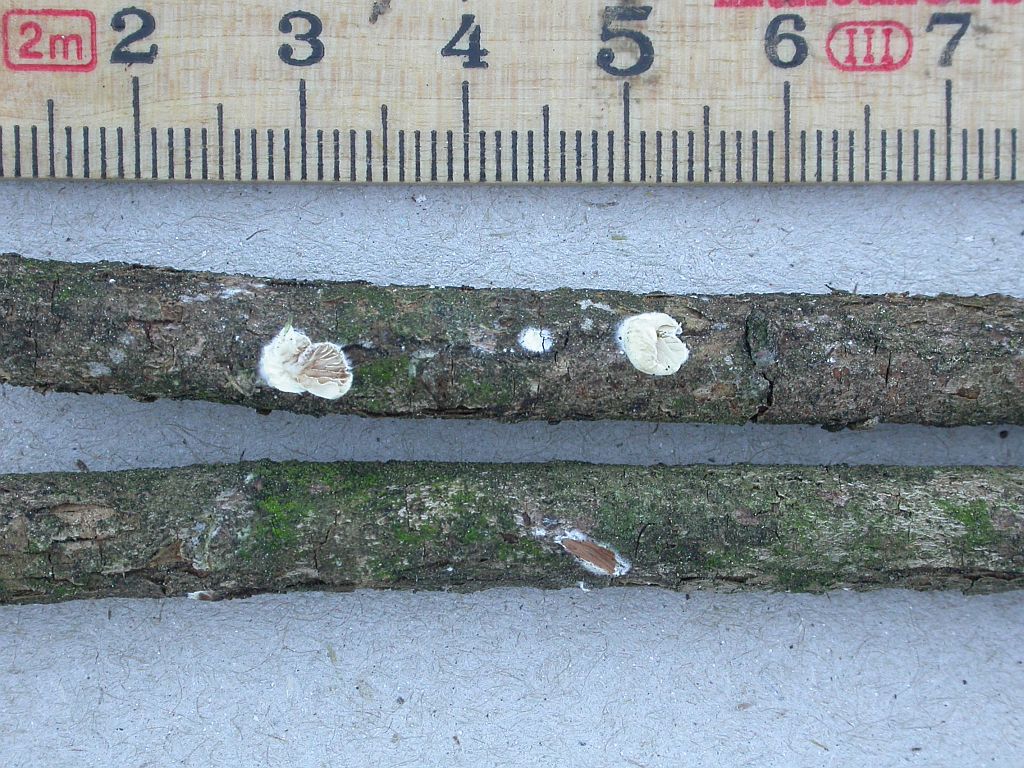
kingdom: Fungi
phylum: Basidiomycota
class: Agaricomycetes
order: Agaricales
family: Crepidotaceae
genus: Crepidotus
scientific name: Crepidotus cesatii
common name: almindelig muslingesvamp
